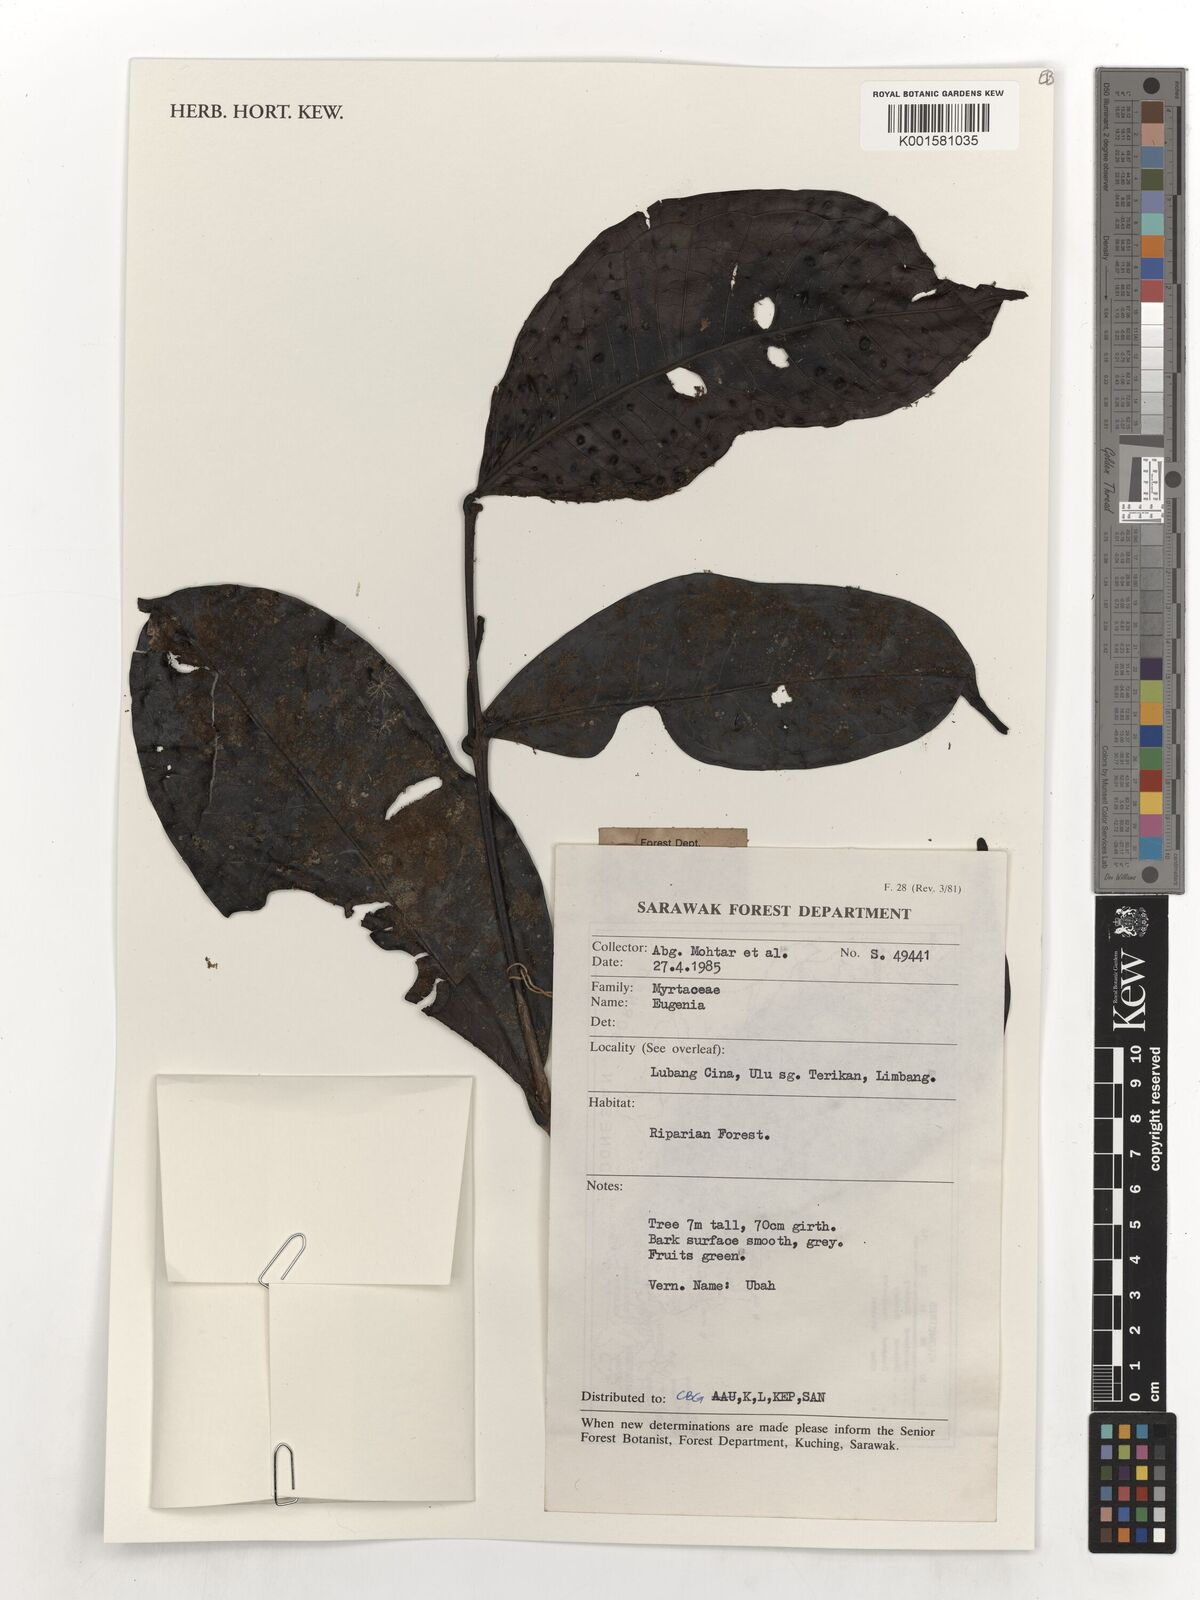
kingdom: Plantae
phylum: Tracheophyta
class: Magnoliopsida
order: Myrtales
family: Myrtaceae
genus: Eugenia
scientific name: Eugenia
